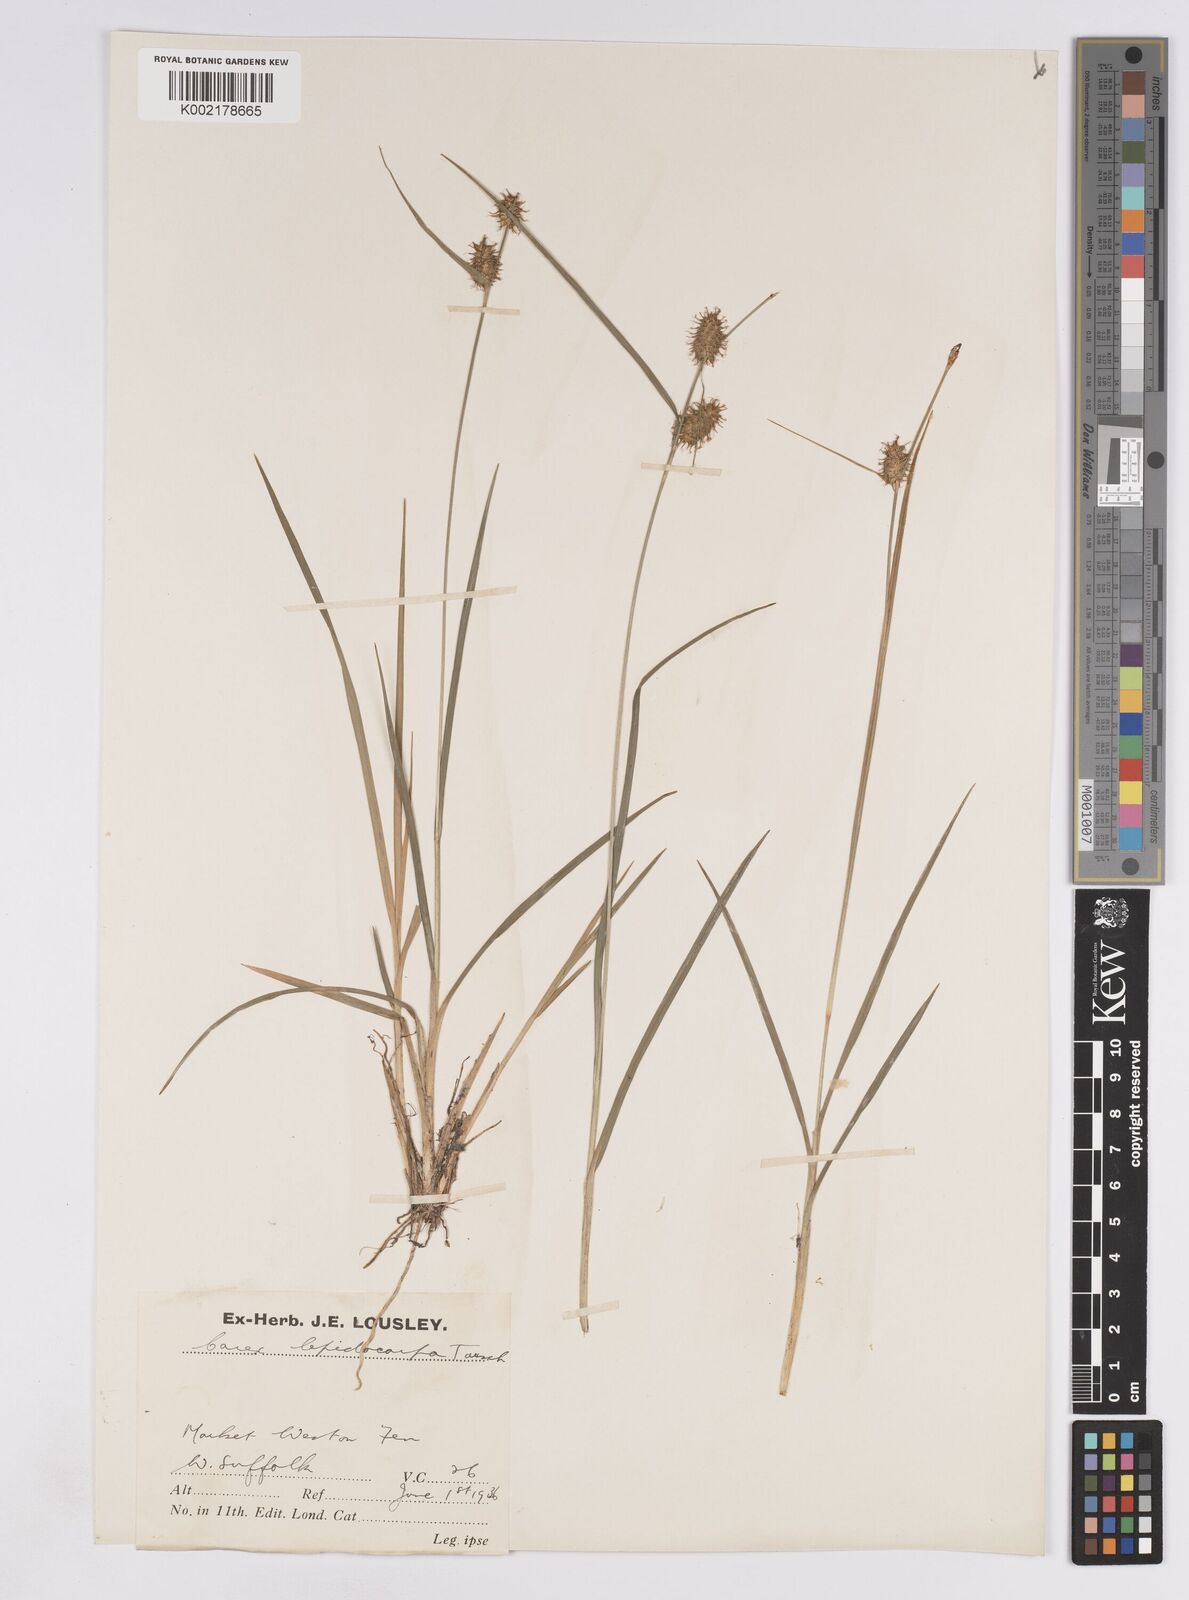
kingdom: Plantae
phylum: Tracheophyta
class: Liliopsida
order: Poales
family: Cyperaceae
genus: Carex
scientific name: Carex lepidocarpa
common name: Long-stalked yellow-sedge
